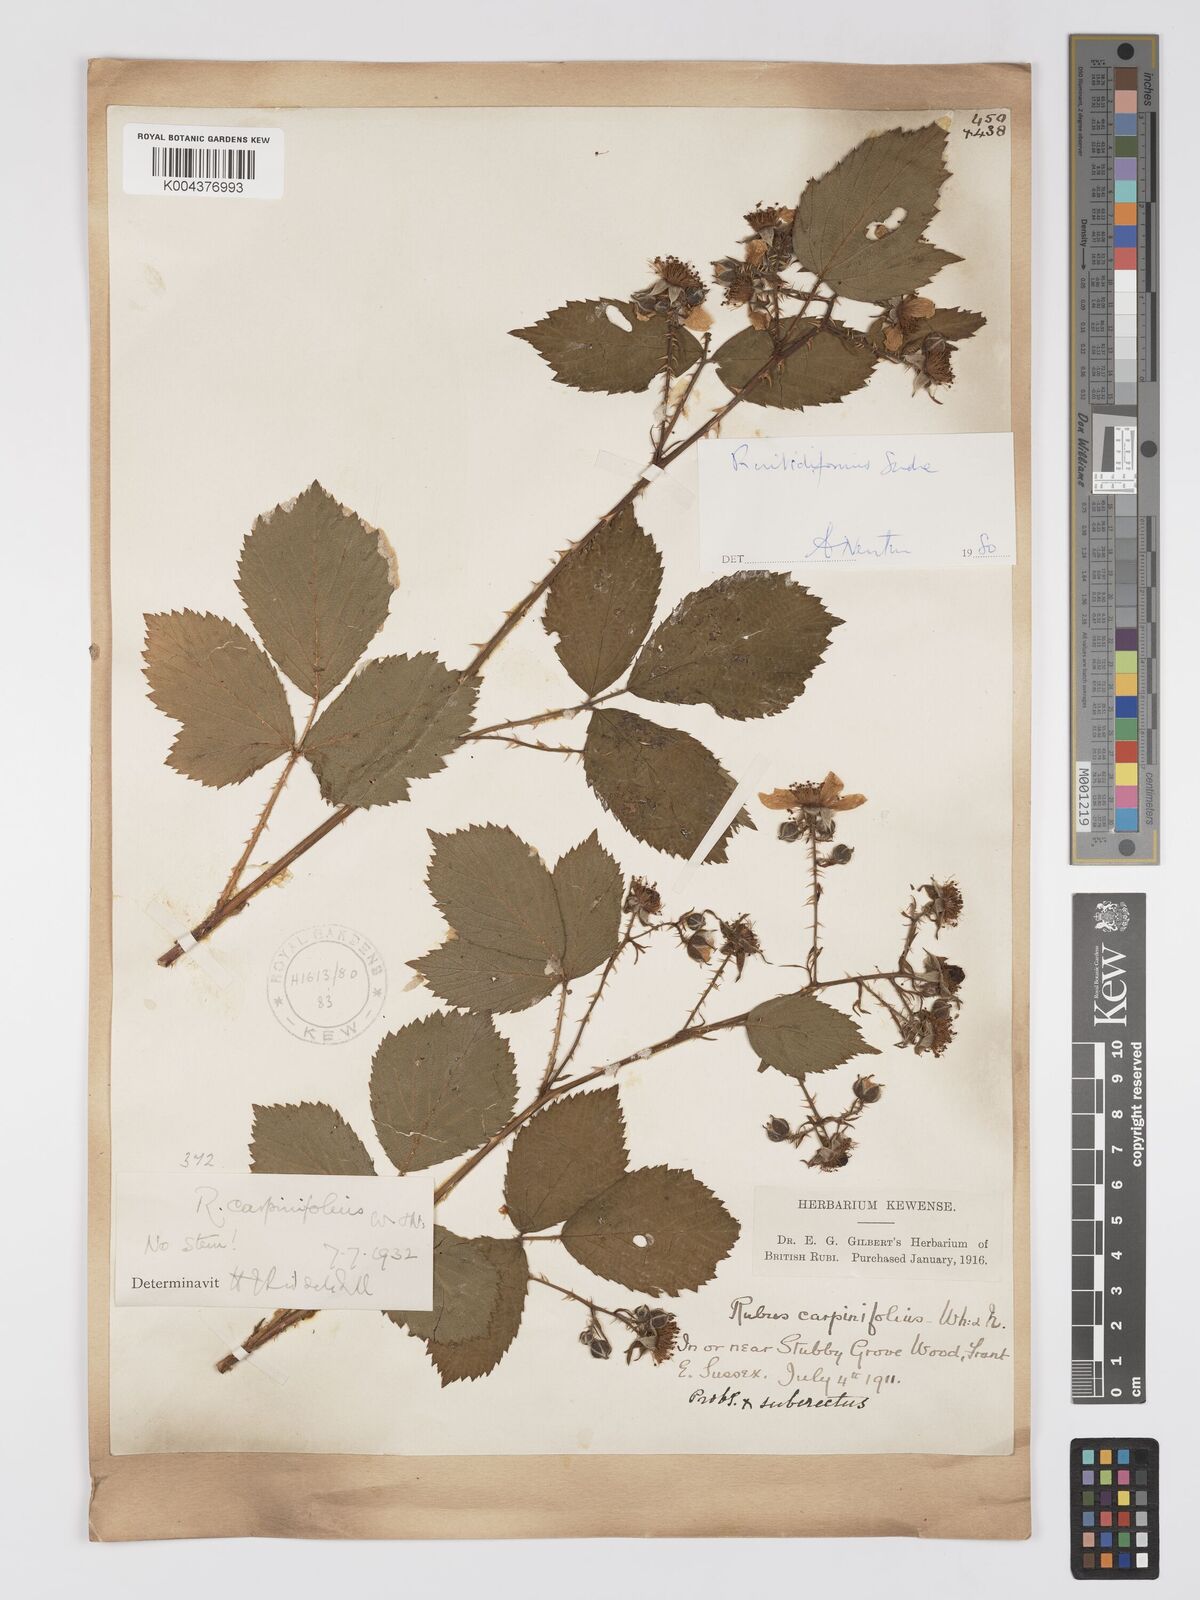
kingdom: Plantae
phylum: Tracheophyta
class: Magnoliopsida
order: Rosales
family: Rosaceae
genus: Rubus
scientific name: Rubus nitidiformis
